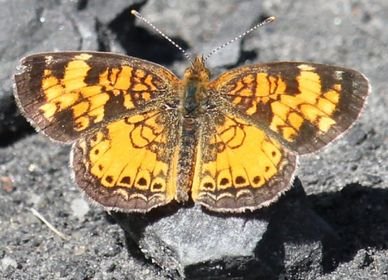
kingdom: Animalia
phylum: Arthropoda
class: Insecta
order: Lepidoptera
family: Nymphalidae
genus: Phyciodes
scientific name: Phyciodes tharos
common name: Pearl Crescent
